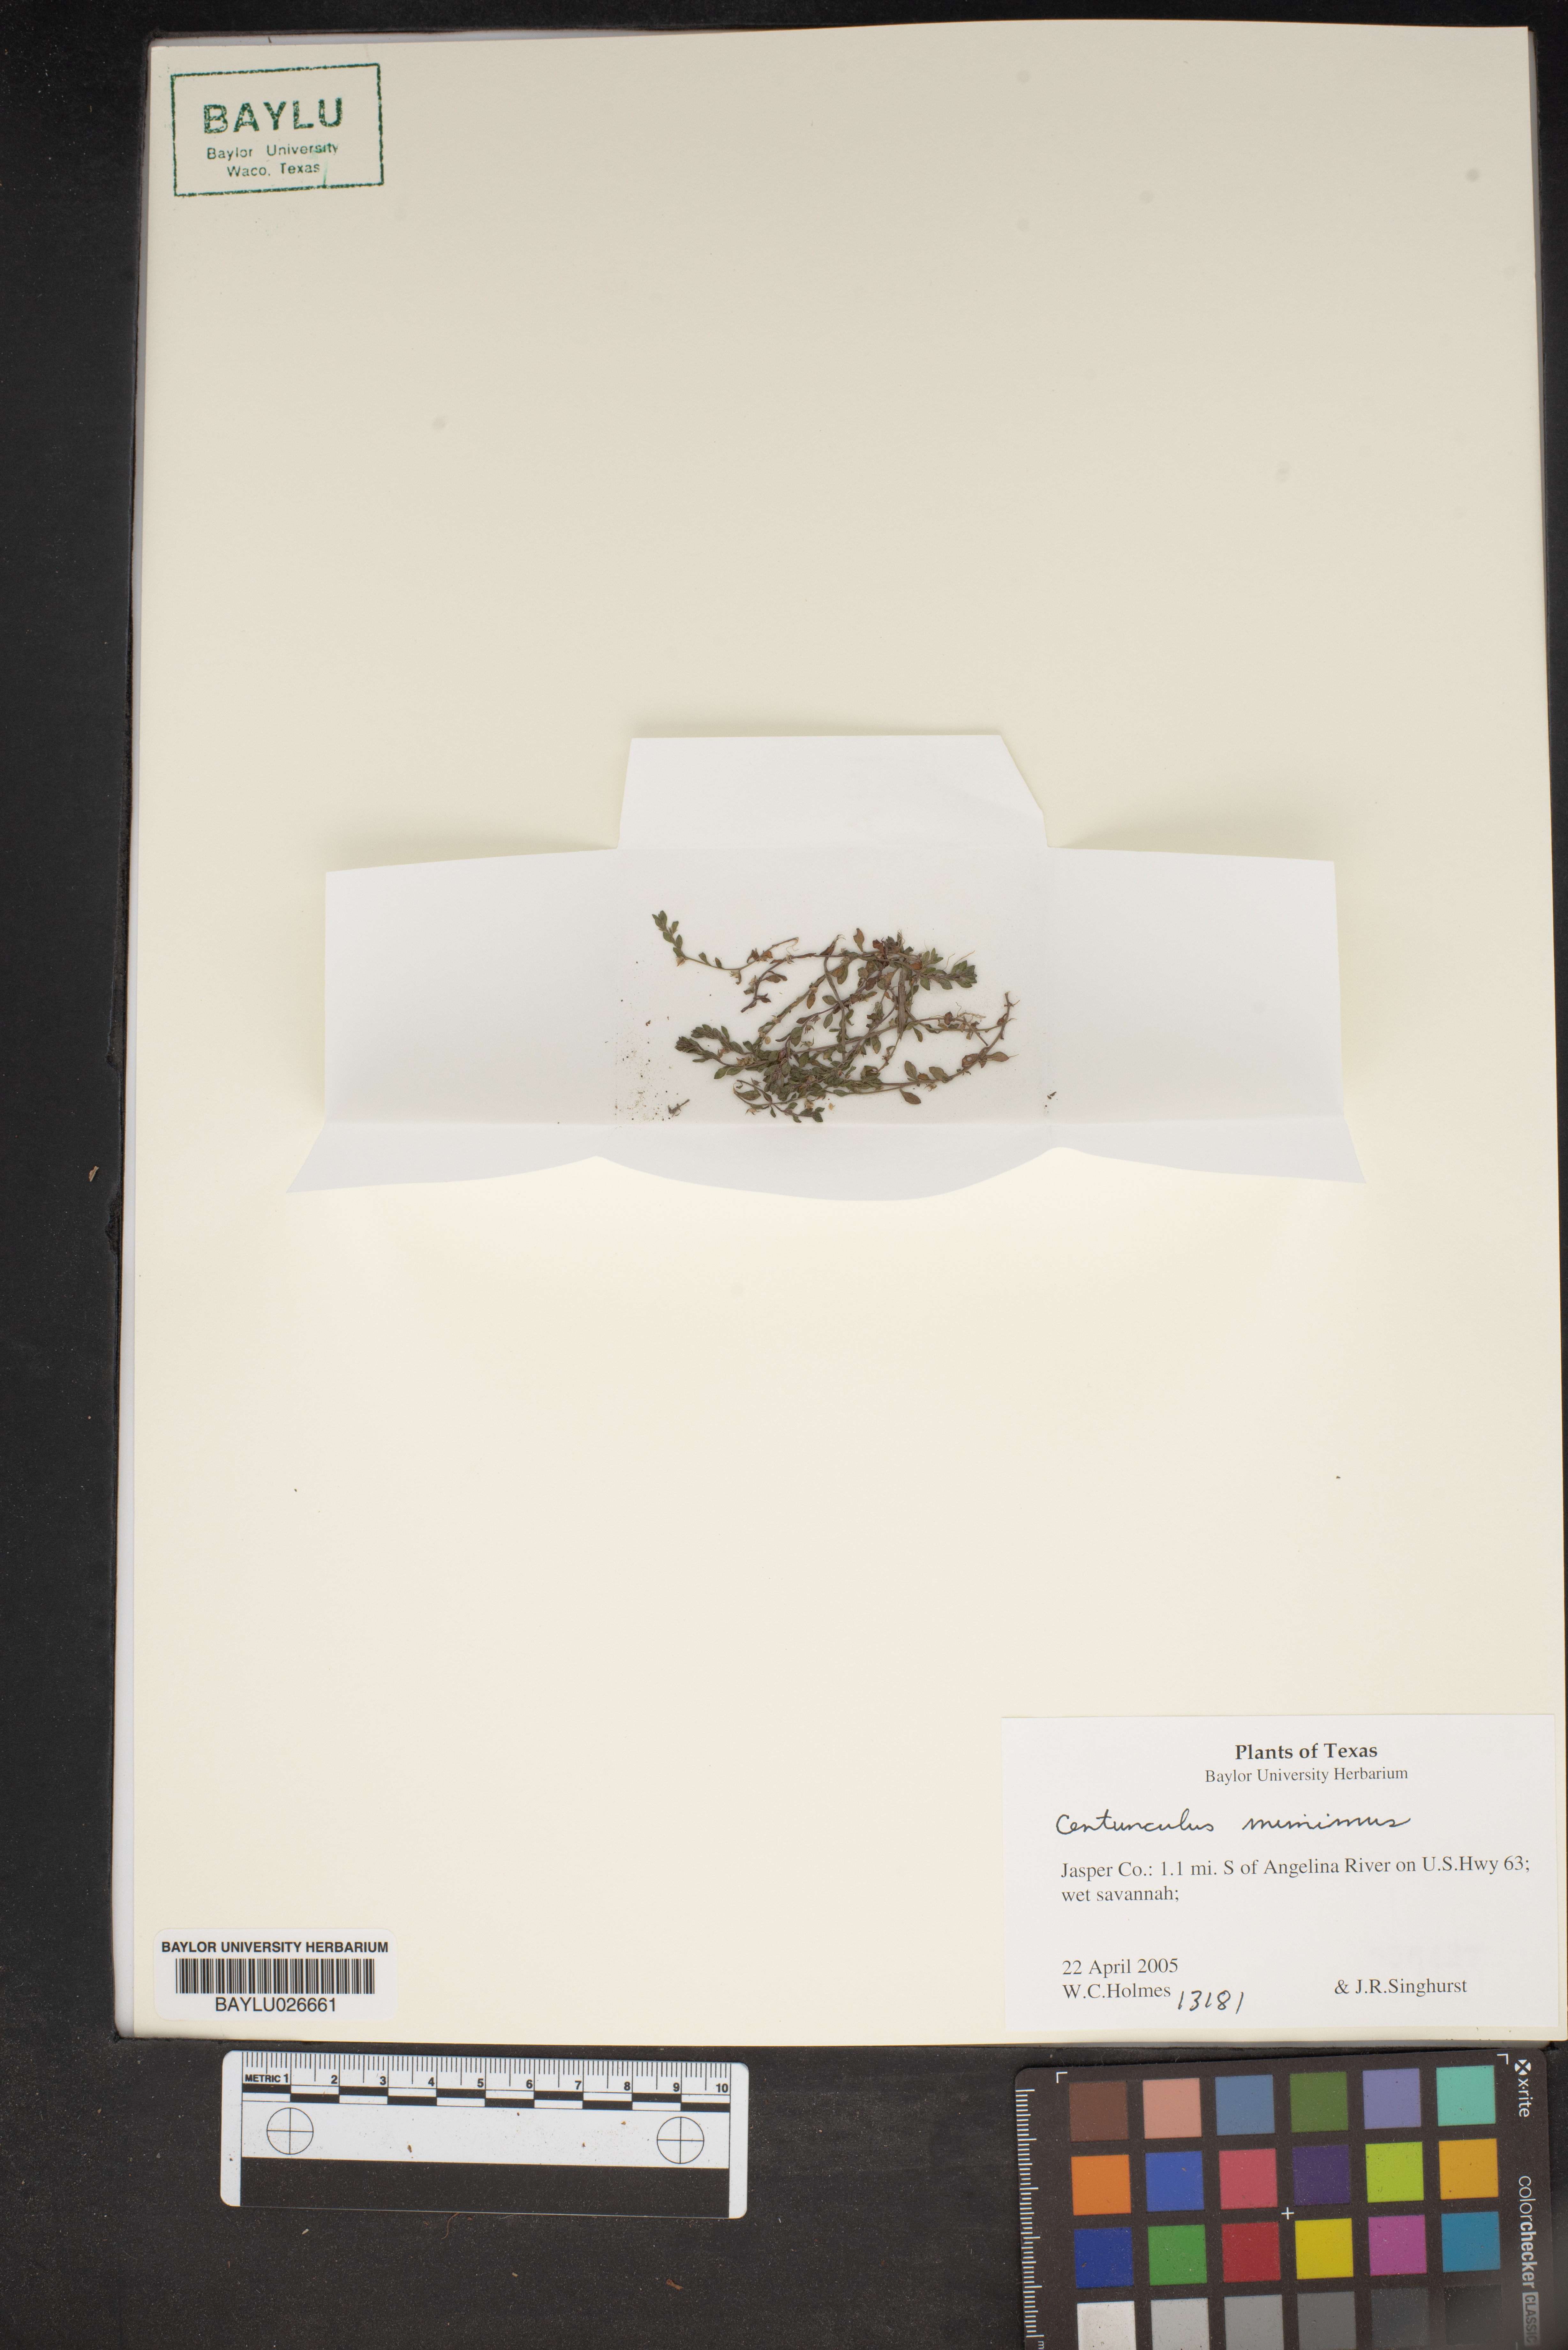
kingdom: Plantae
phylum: Tracheophyta
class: Magnoliopsida
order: Ericales
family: Primulaceae
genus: Lysimachia
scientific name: Lysimachia minima
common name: Chaffweed
